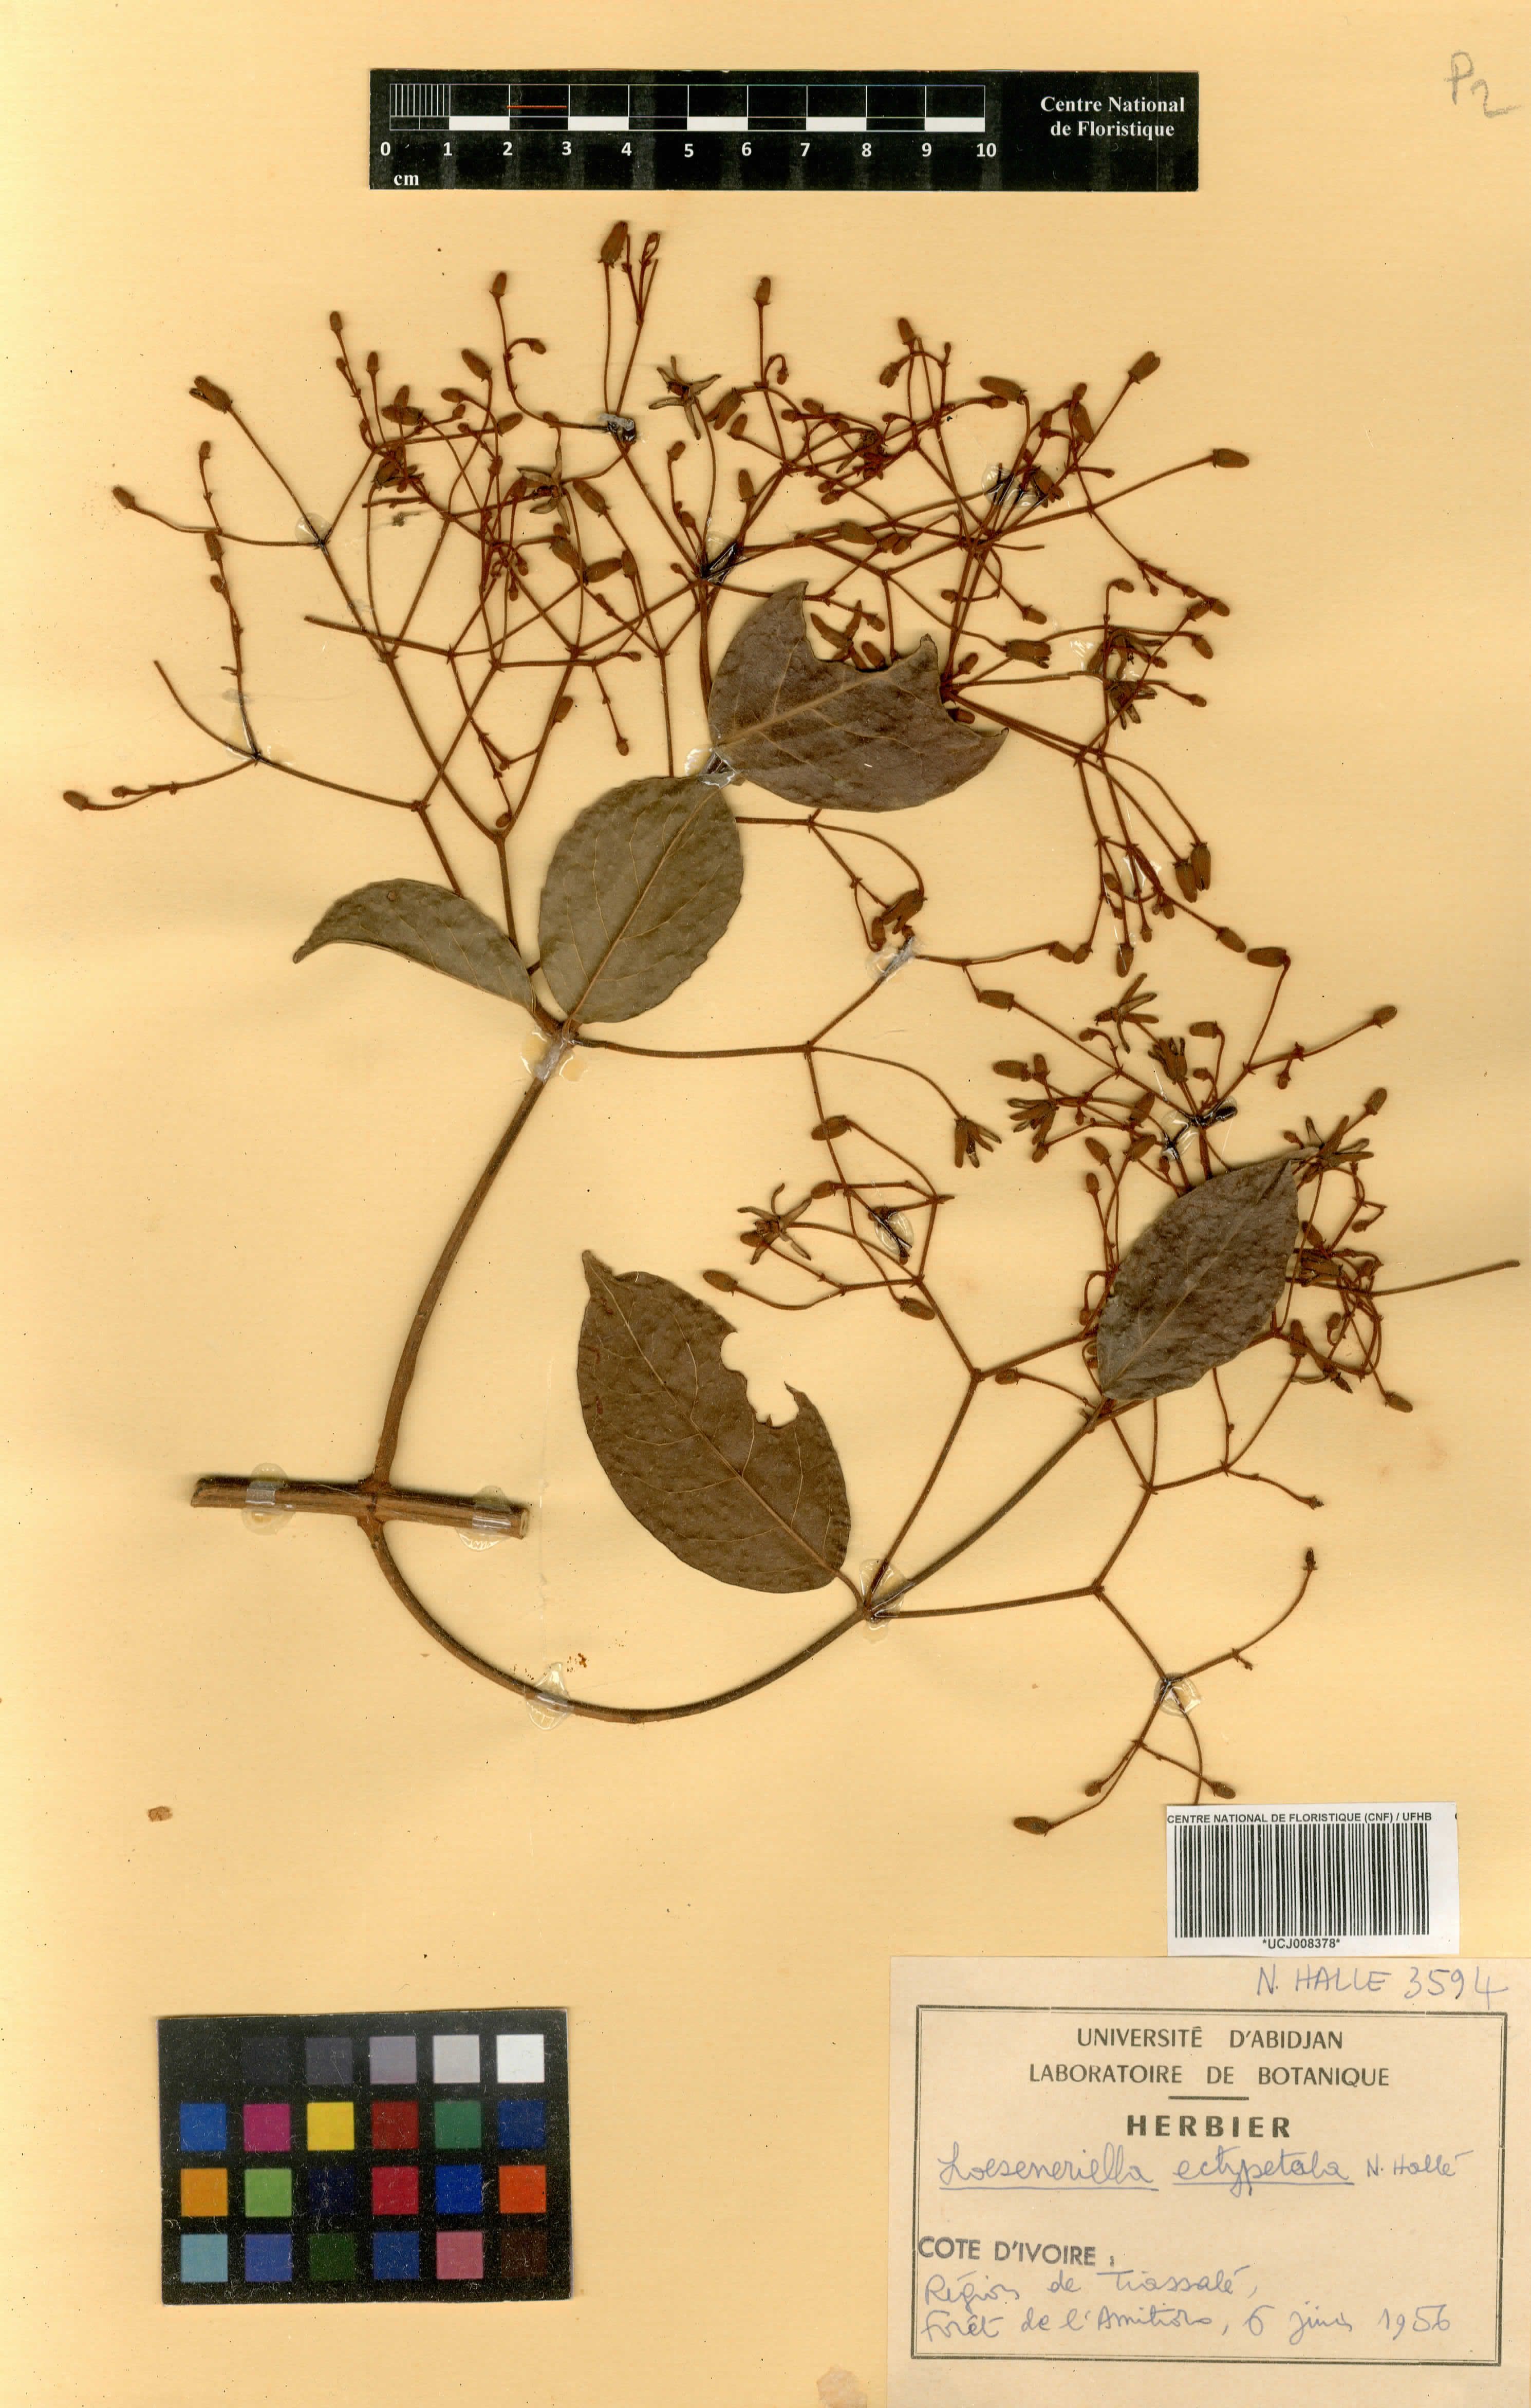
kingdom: Plantae
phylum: Tracheophyta
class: Magnoliopsida
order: Celastrales
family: Celastraceae
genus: Loeseneriella
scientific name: Loeseneriella ectypopetala
